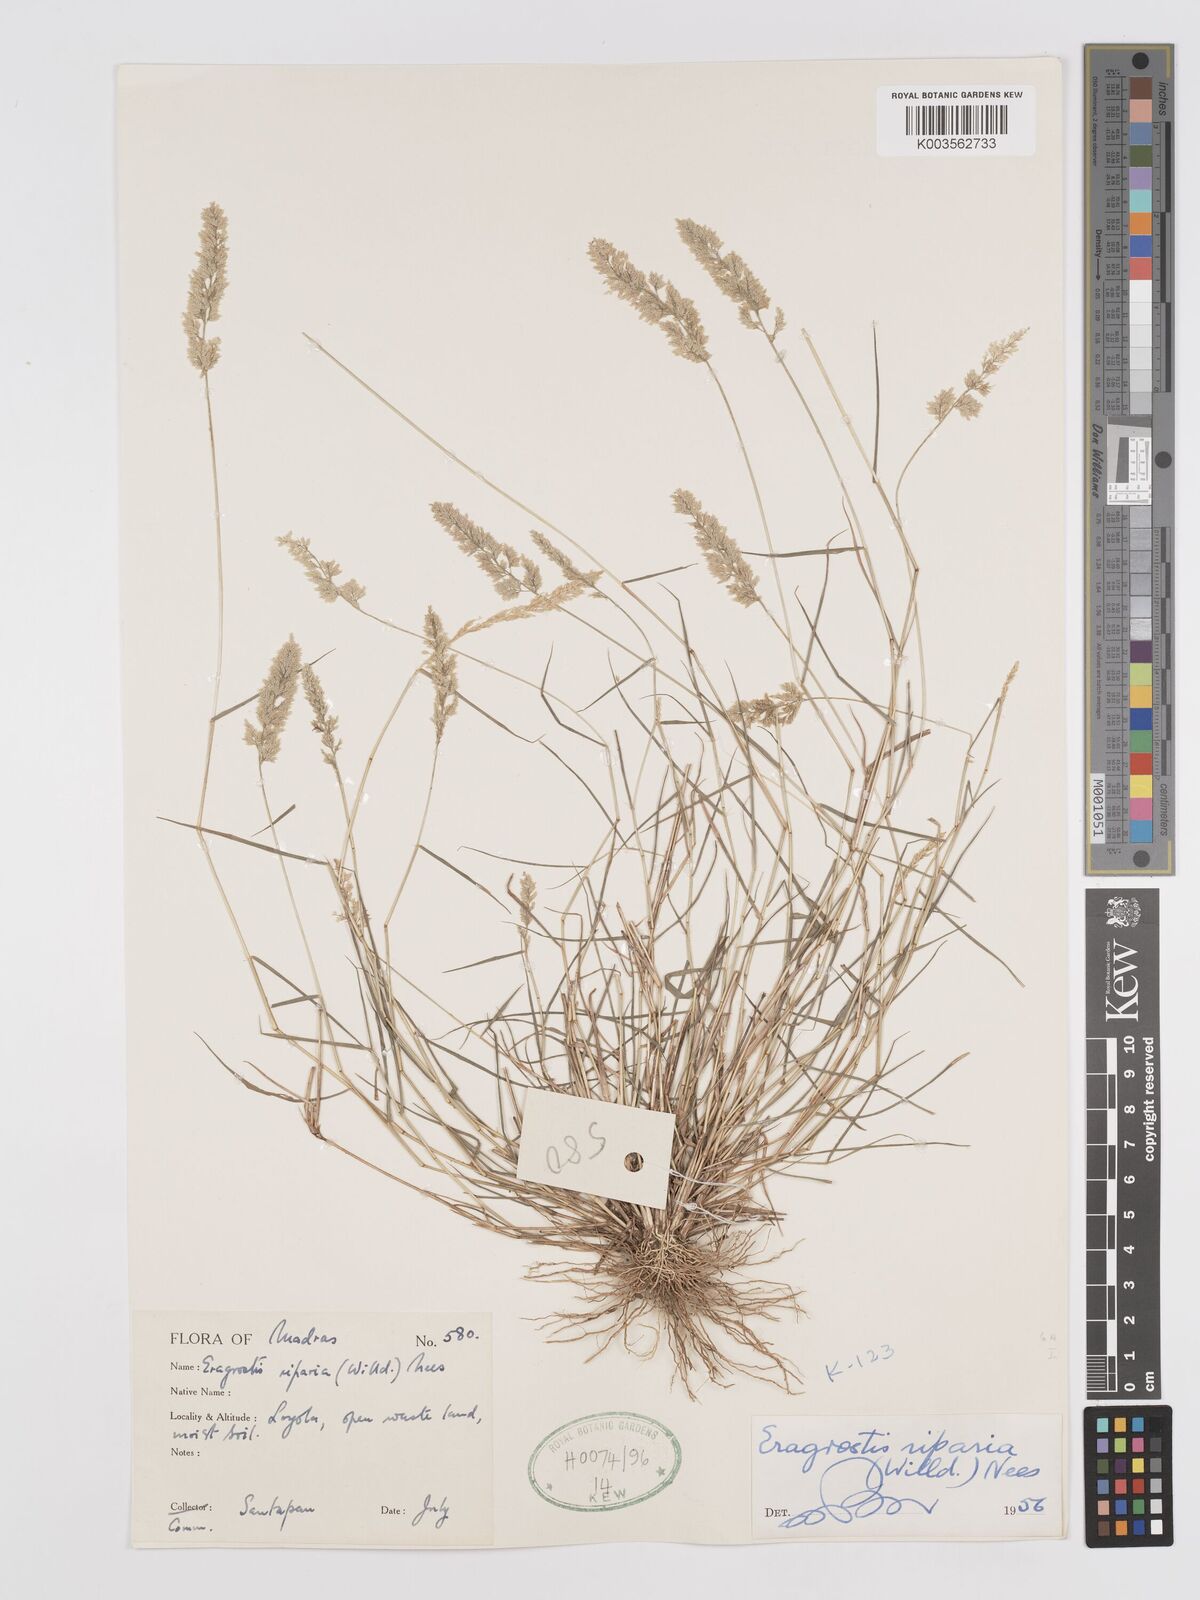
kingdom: Plantae
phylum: Tracheophyta
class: Liliopsida
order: Poales
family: Poaceae
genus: Eragrostis
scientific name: Eragrostis riparia
